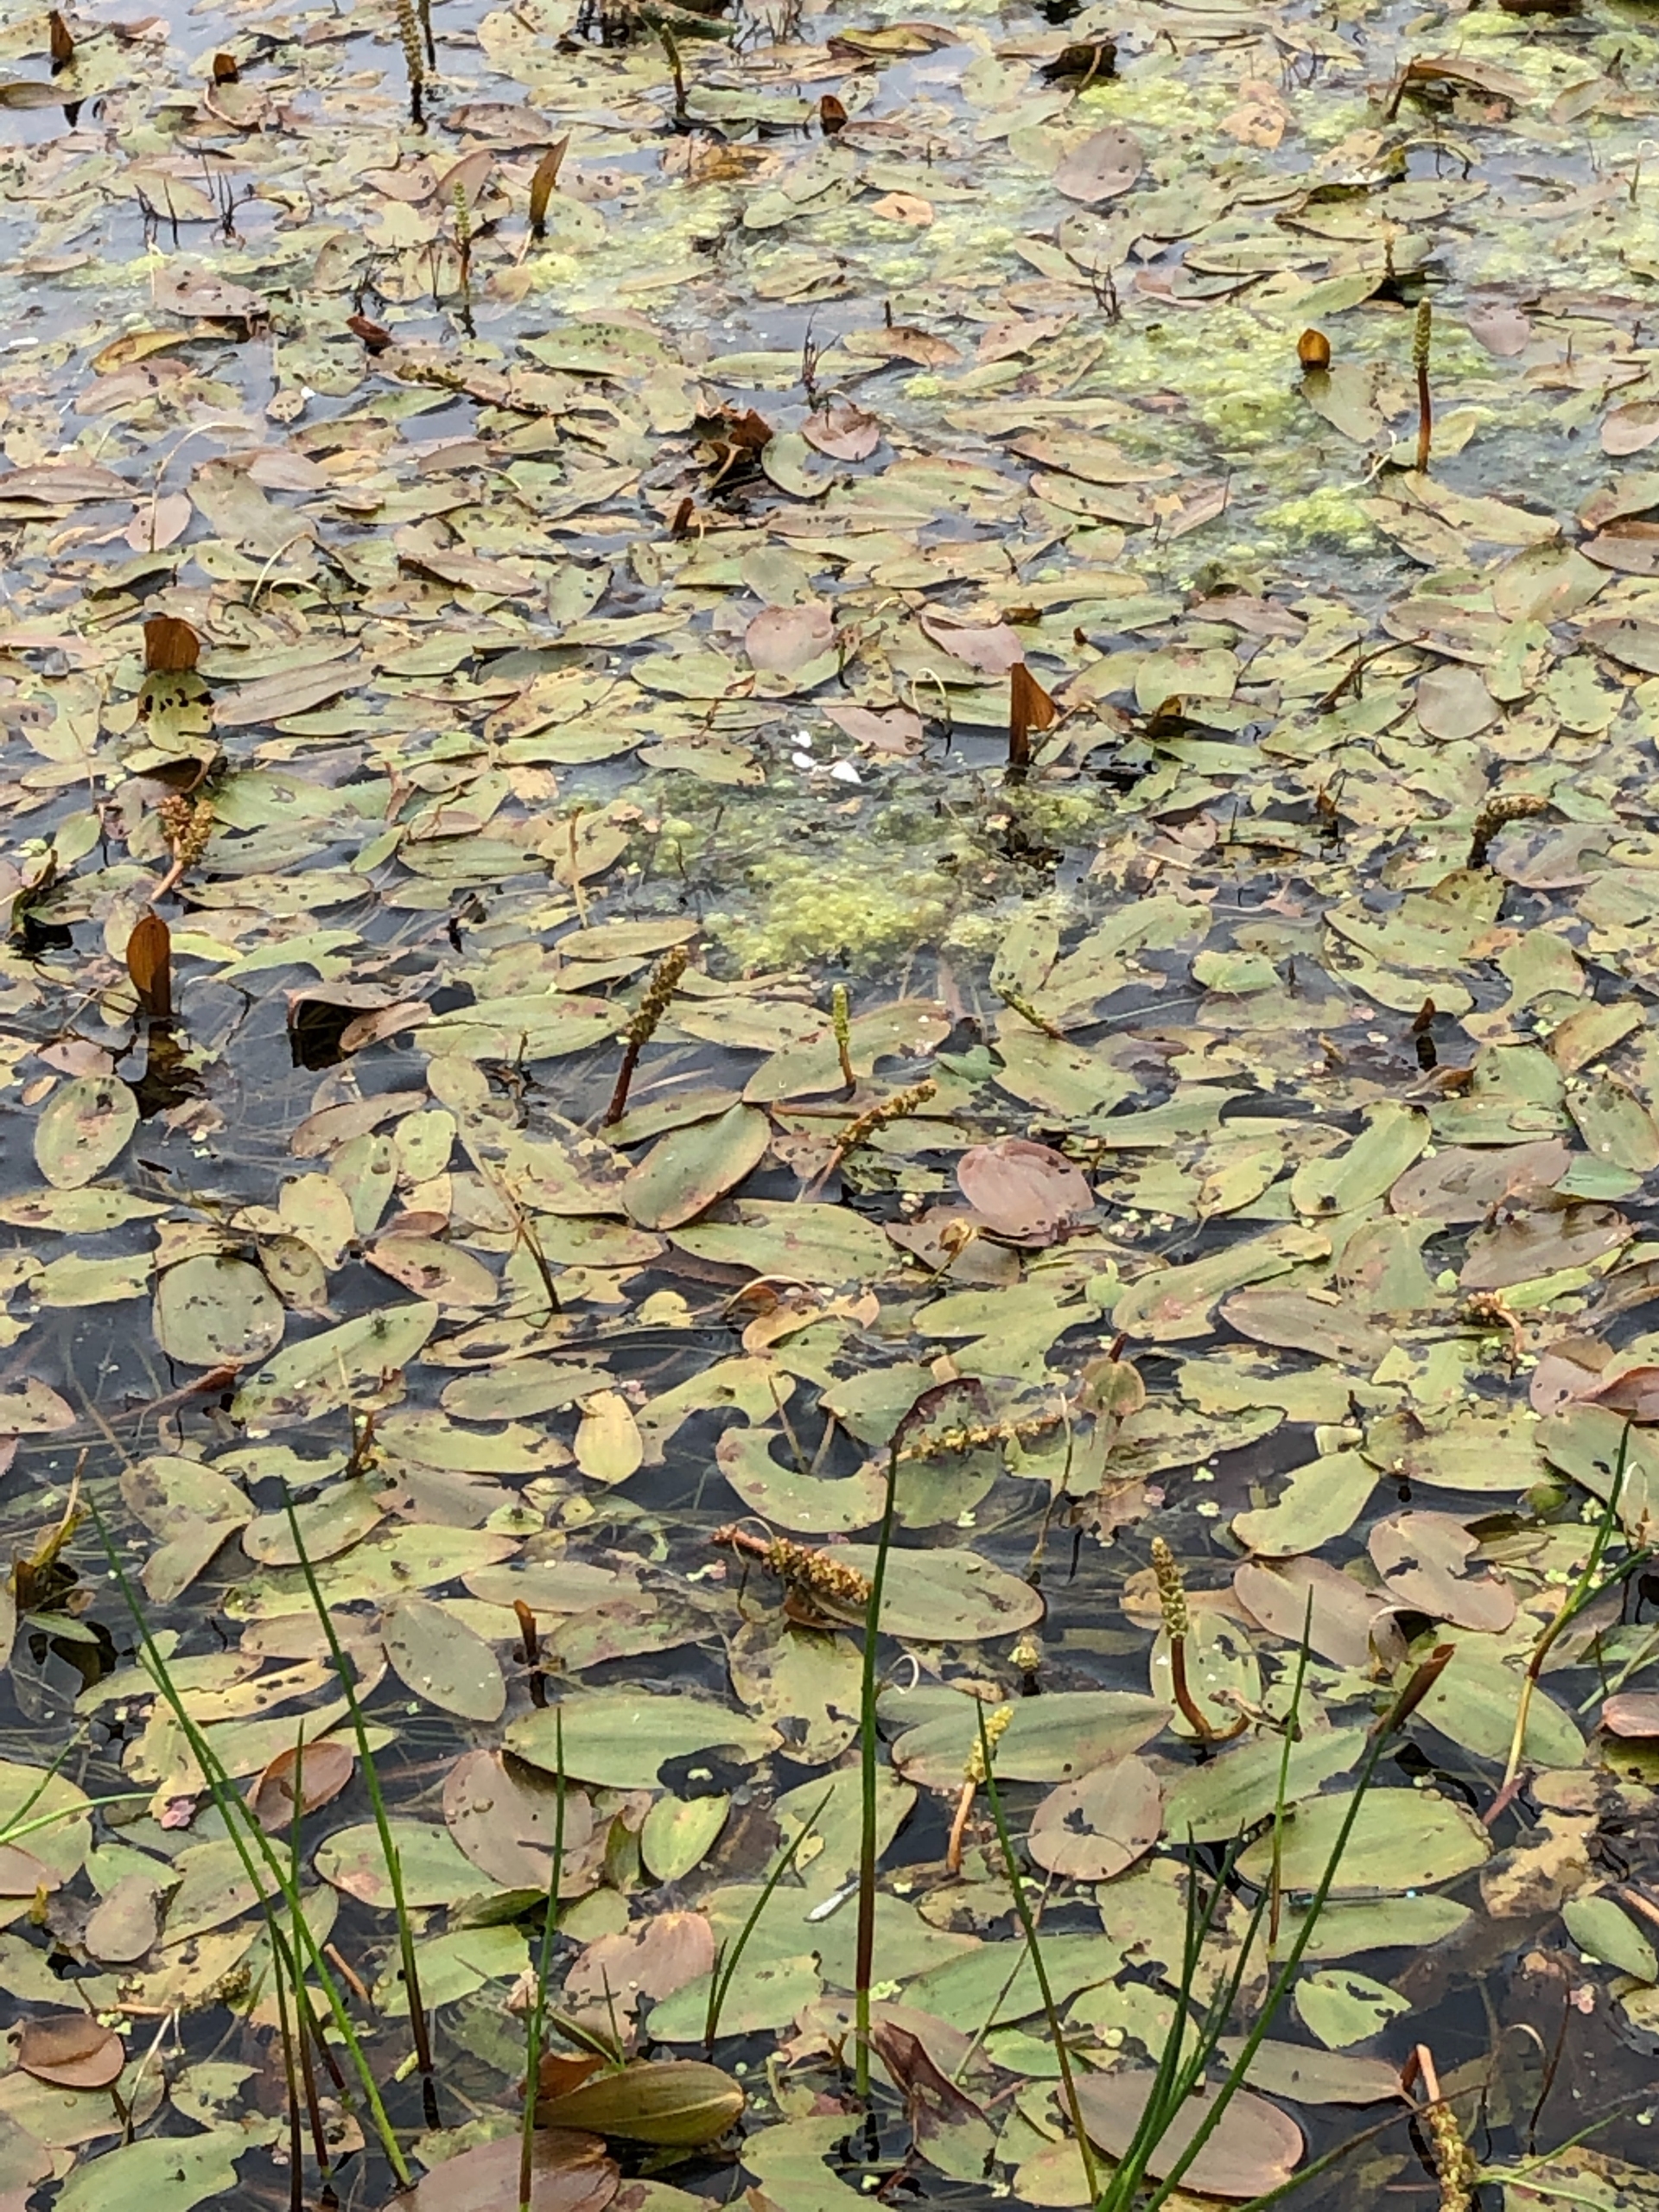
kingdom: Plantae
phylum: Tracheophyta
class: Liliopsida
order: Alismatales
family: Potamogetonaceae
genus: Potamogeton
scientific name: Potamogeton natans
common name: Svømmende vandaks
